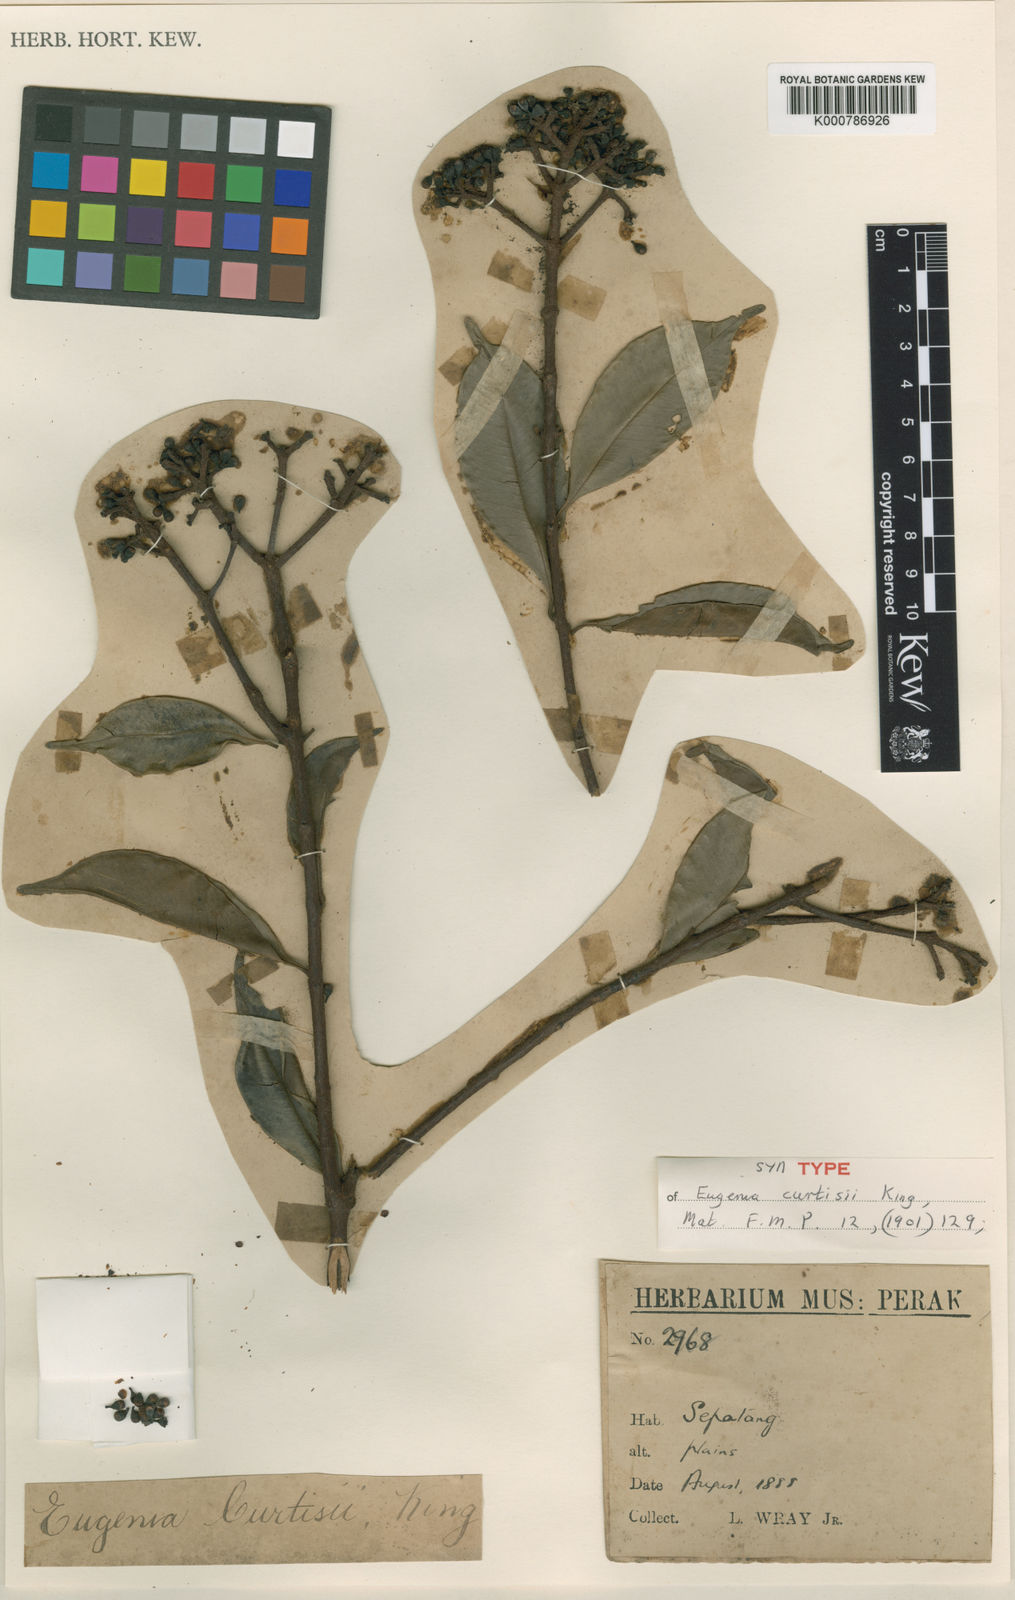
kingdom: Plantae
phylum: Tracheophyta
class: Magnoliopsida
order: Myrtales
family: Myrtaceae
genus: Syzygium
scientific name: Syzygium curtisii
